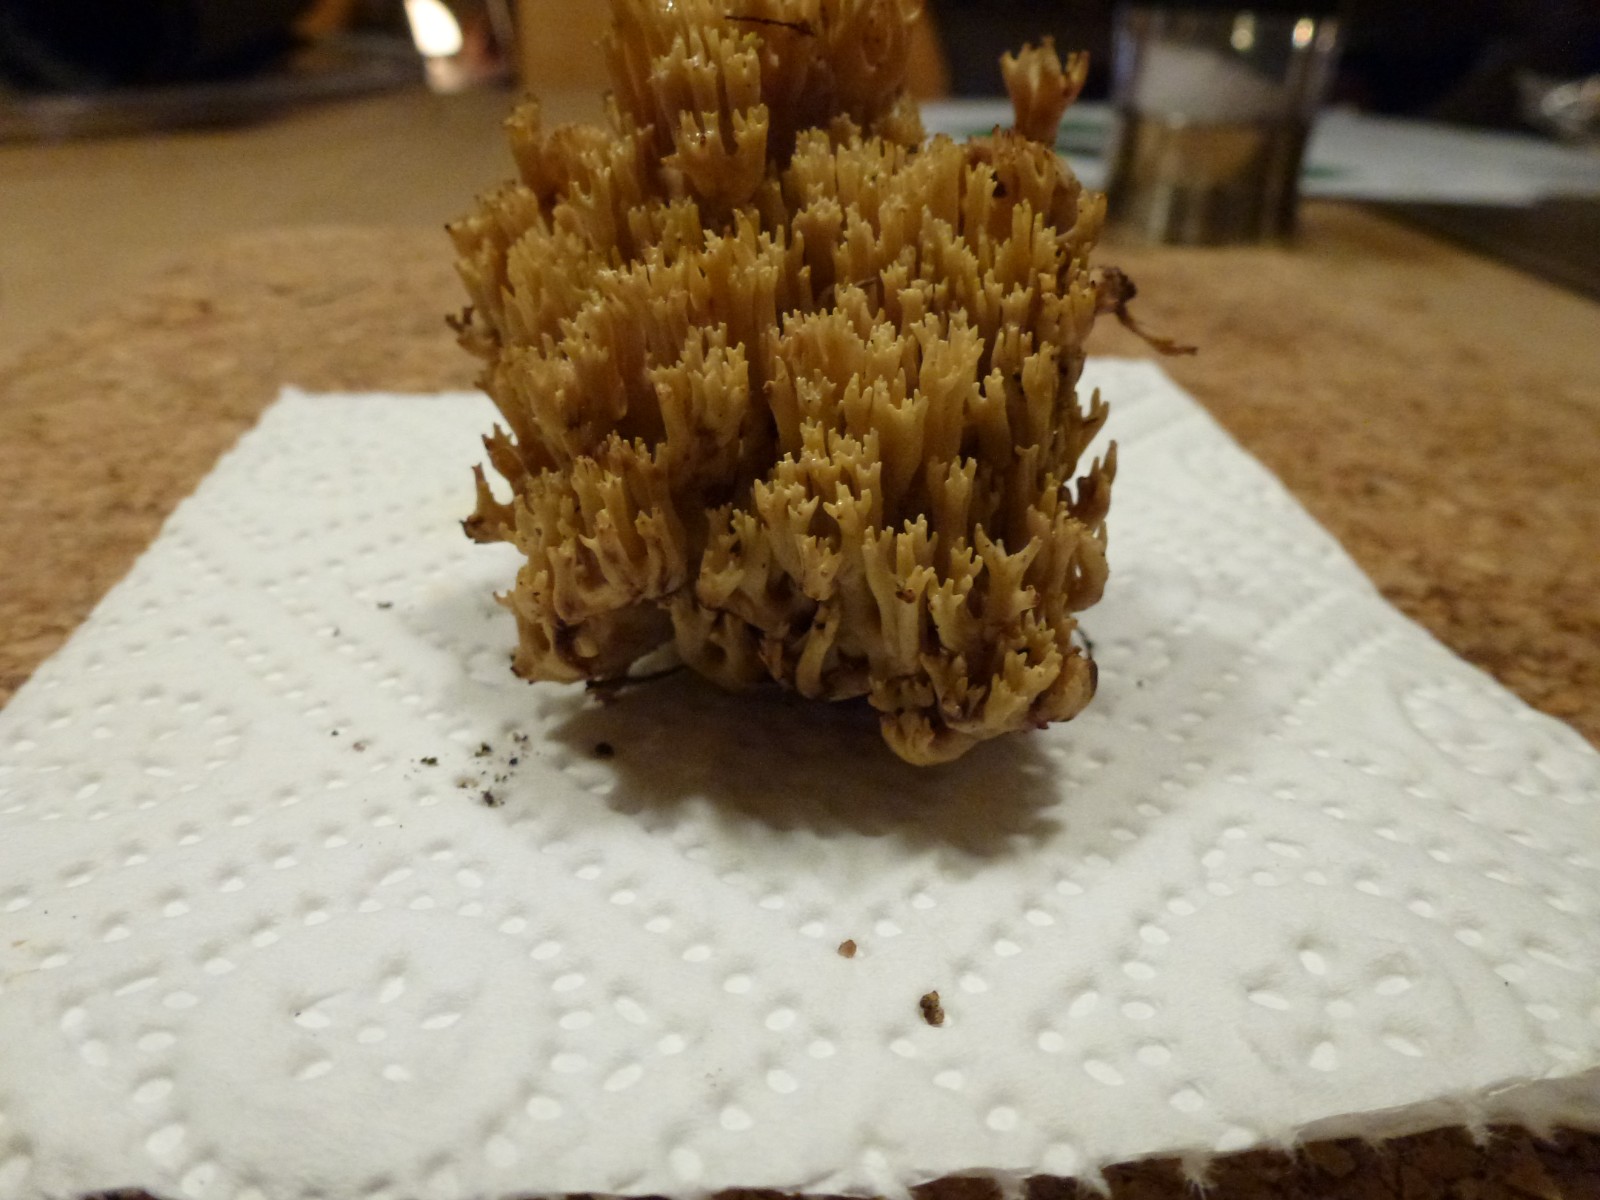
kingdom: Fungi
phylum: Basidiomycota
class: Agaricomycetes
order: Gomphales
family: Gomphaceae
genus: Ramaria
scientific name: Ramaria stricta
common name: rank koralsvamp
